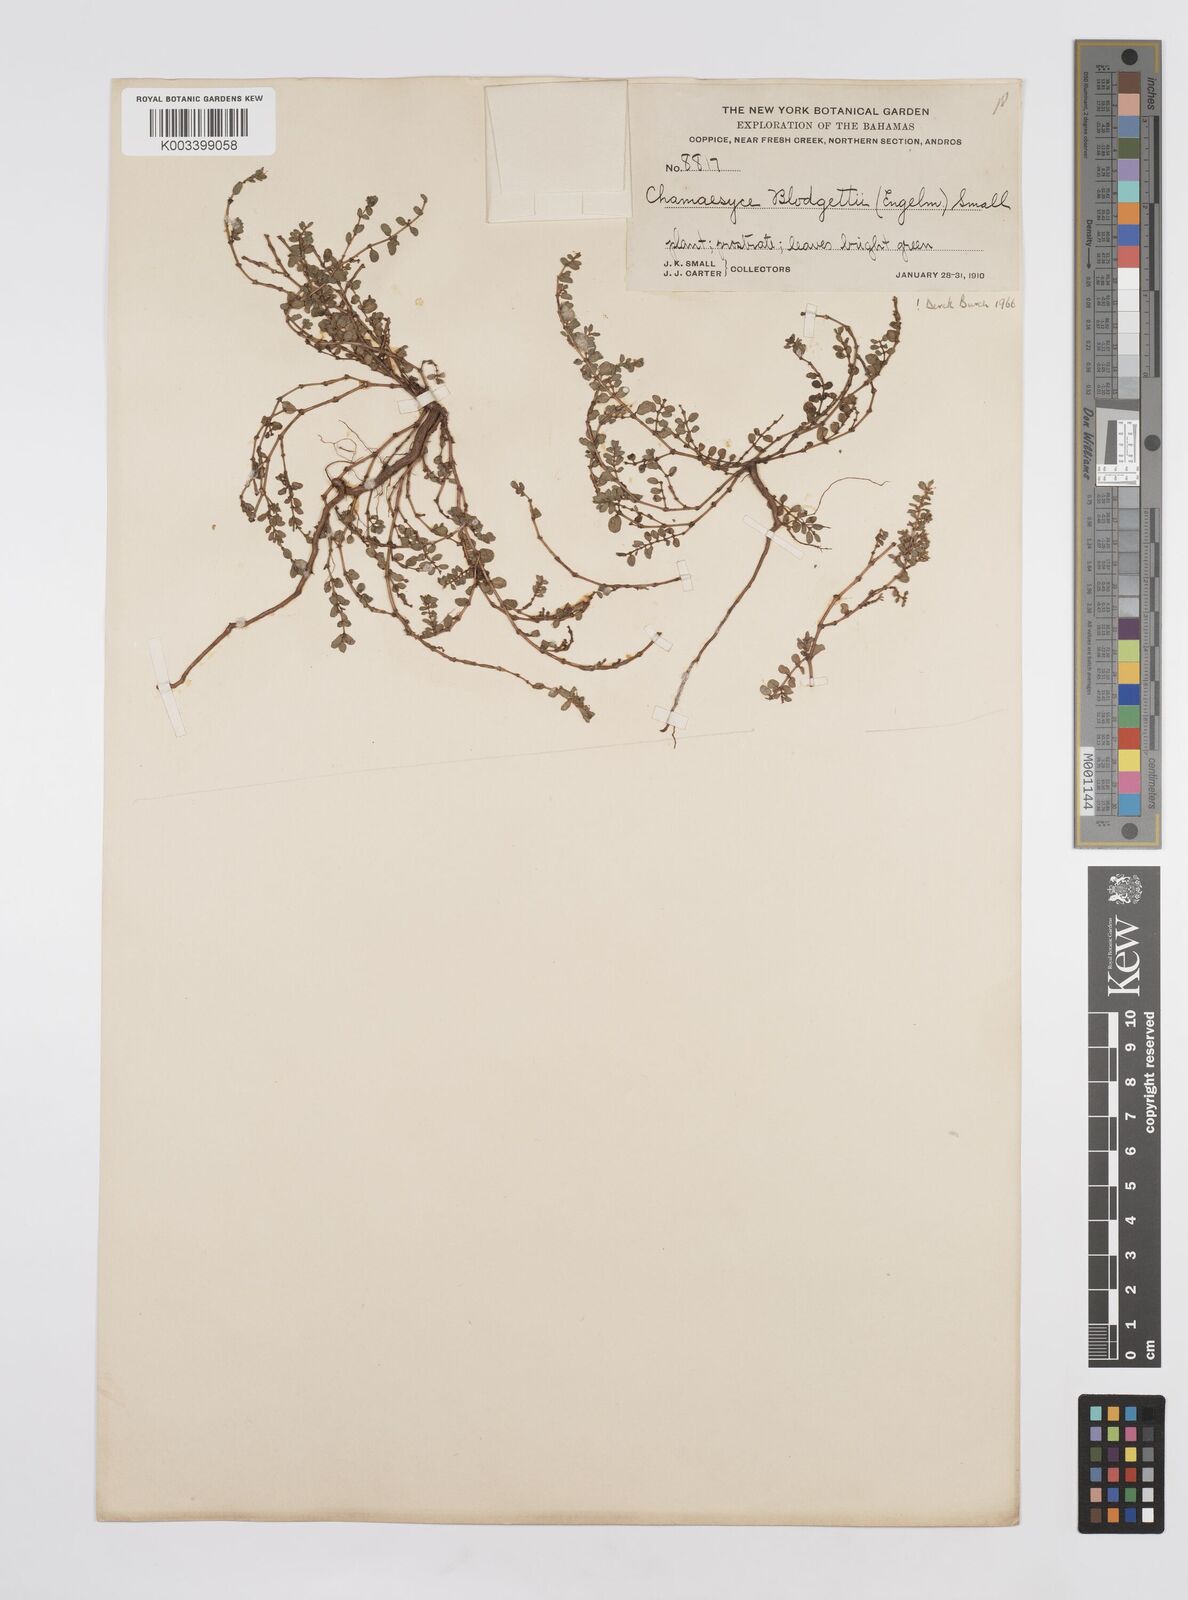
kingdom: Plantae
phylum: Tracheophyta
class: Magnoliopsida
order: Malpighiales
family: Euphorbiaceae
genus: Euphorbia
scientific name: Euphorbia blodgettii
